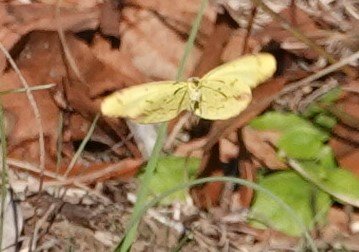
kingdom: Animalia
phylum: Arthropoda
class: Insecta
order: Lepidoptera
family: Pieridae
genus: Pyrisitia
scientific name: Pyrisitia lisa
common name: Little Yellow
